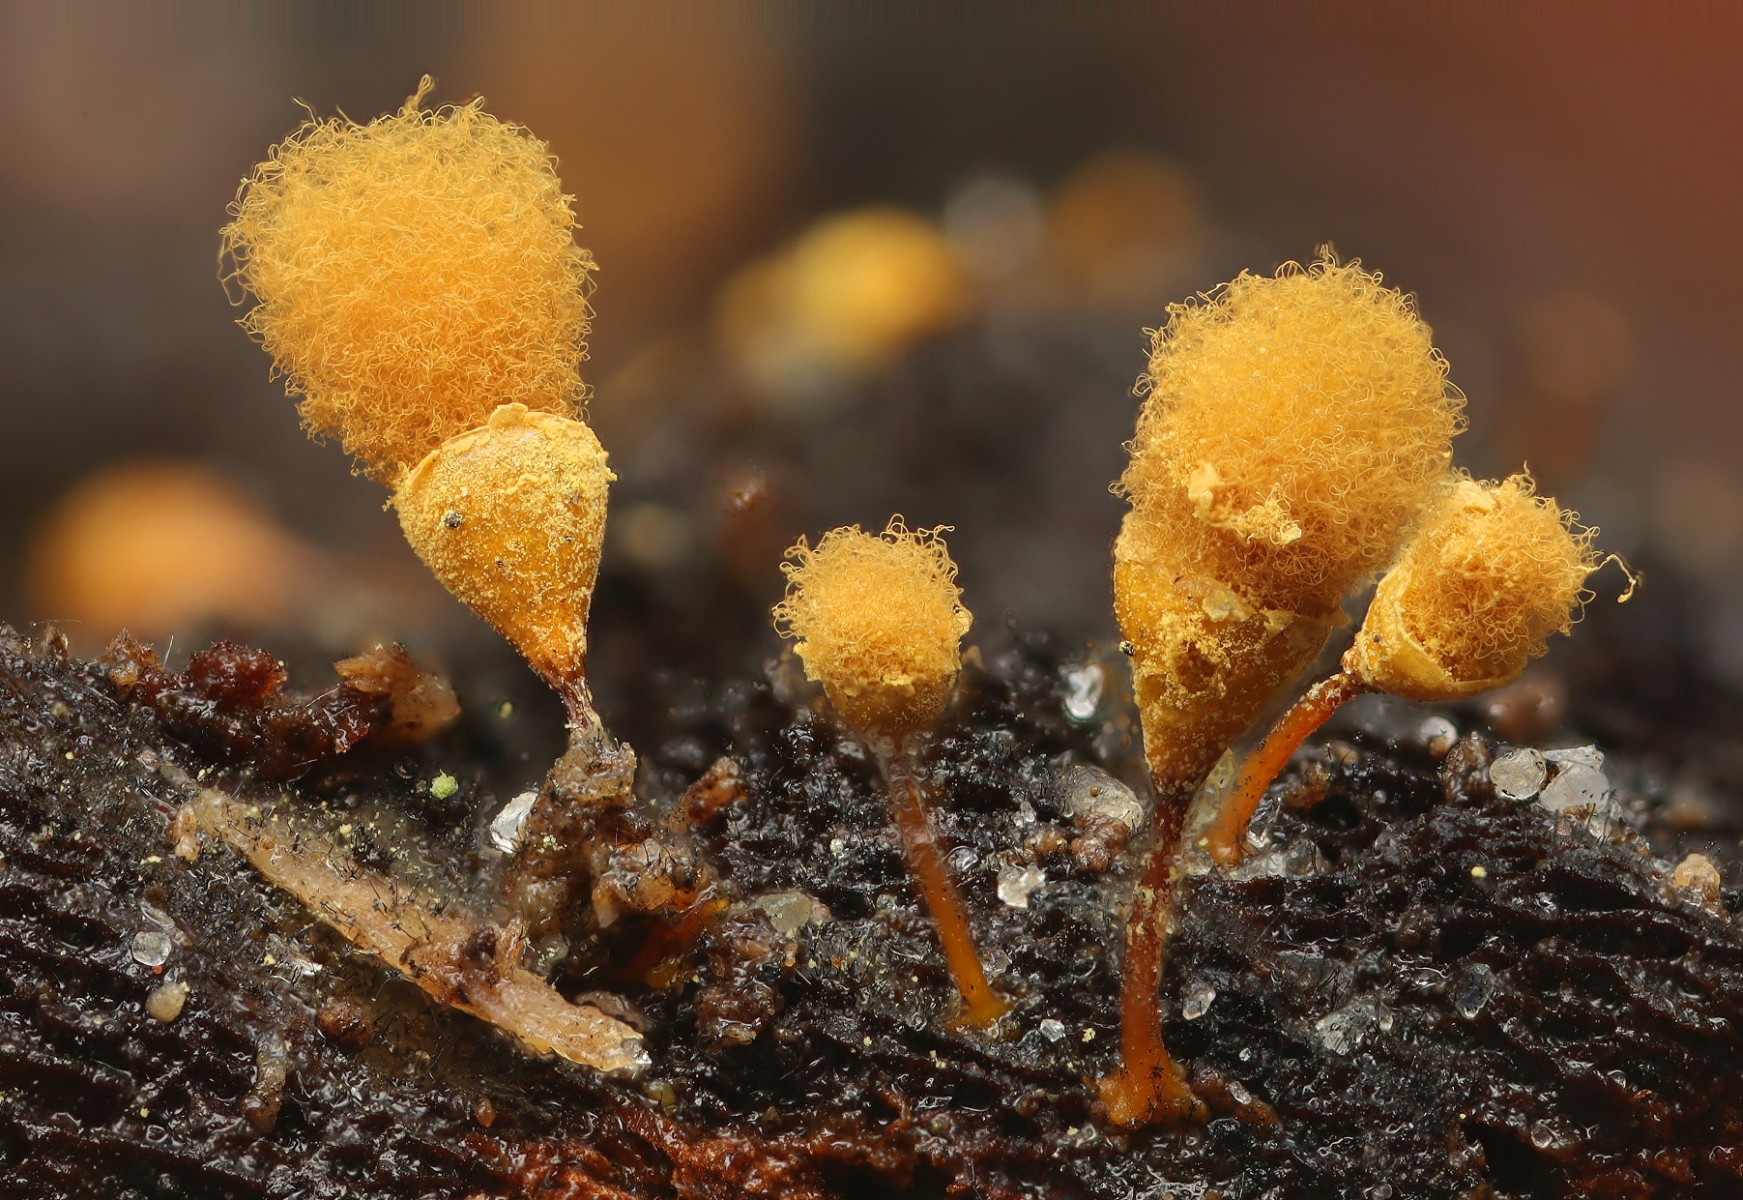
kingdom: Protozoa
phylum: Mycetozoa
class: Myxomycetes
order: Trichiales
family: Arcyriaceae
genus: Hemitrichia
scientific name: Hemitrichia clavata
